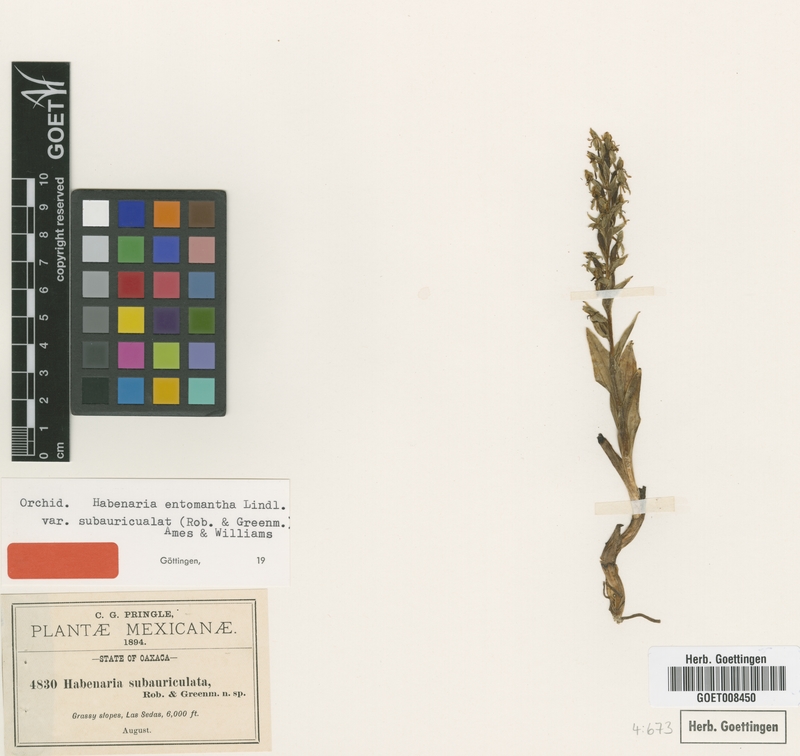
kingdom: Plantae
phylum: Tracheophyta
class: Liliopsida
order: Asparagales
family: Orchidaceae
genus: Habenaria
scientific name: Habenaria subauriculata
